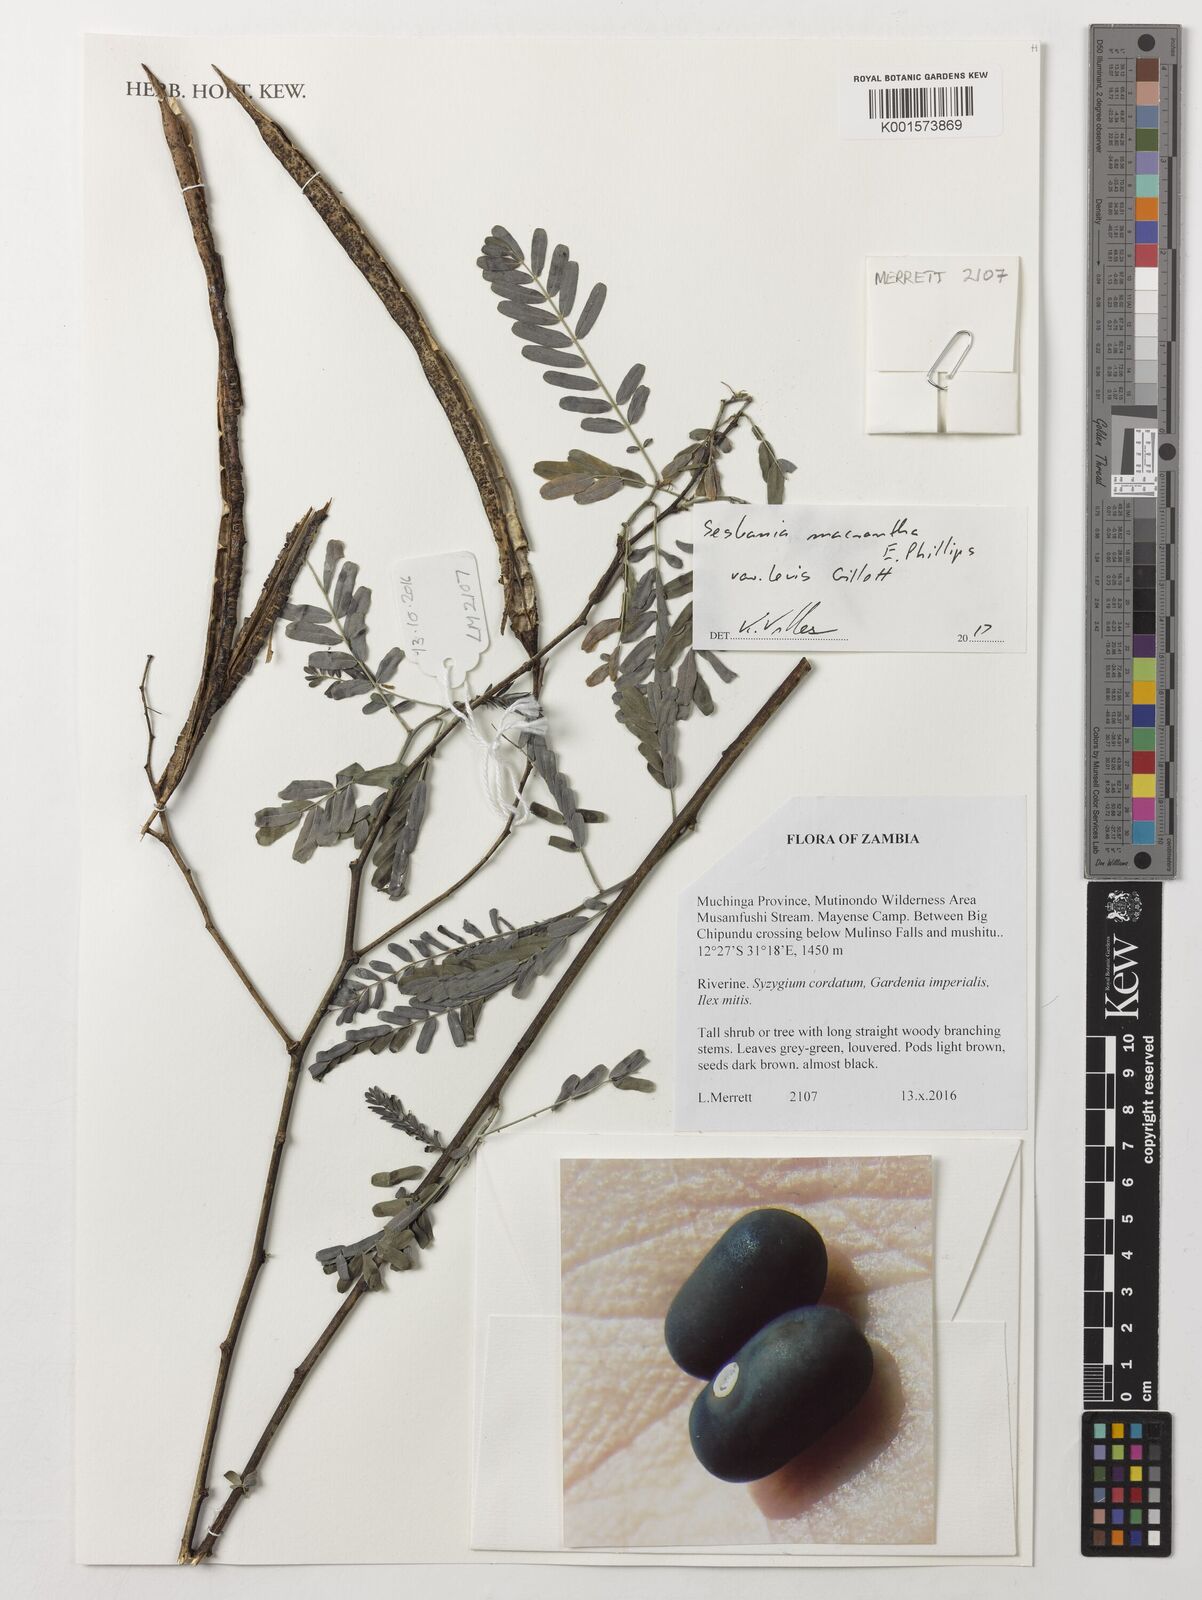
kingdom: Plantae
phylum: Tracheophyta
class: Magnoliopsida
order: Fabales
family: Fabaceae
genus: Sesbania
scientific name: Sesbania macrantha
